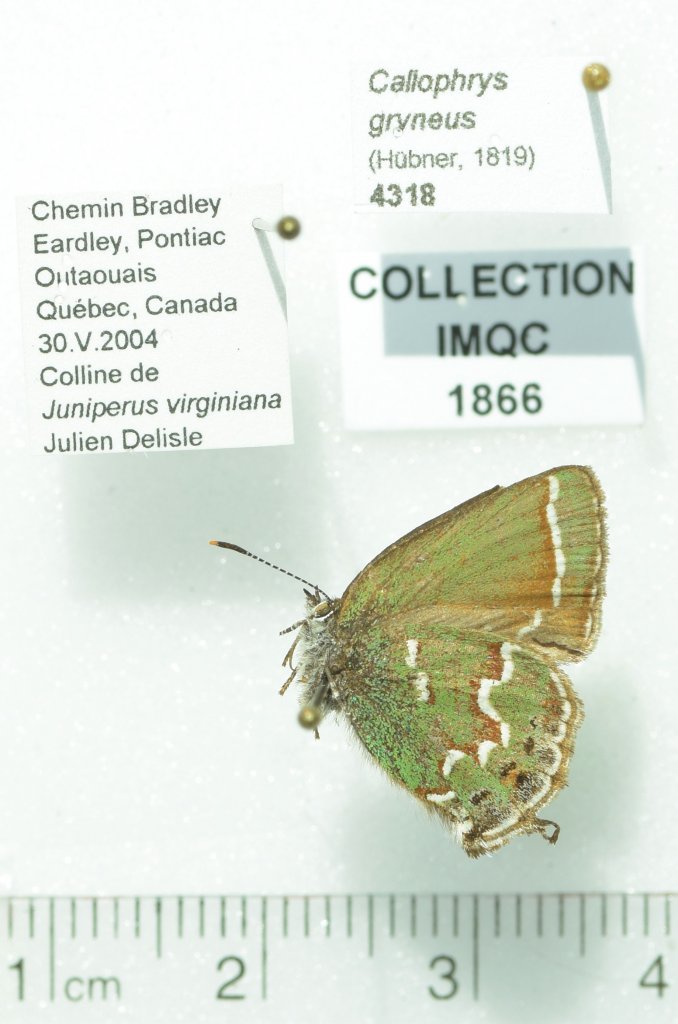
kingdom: Animalia
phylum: Arthropoda
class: Insecta
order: Lepidoptera
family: Lycaenidae
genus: Mitoura
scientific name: Mitoura gryneus
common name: Juniper Hairstreak
